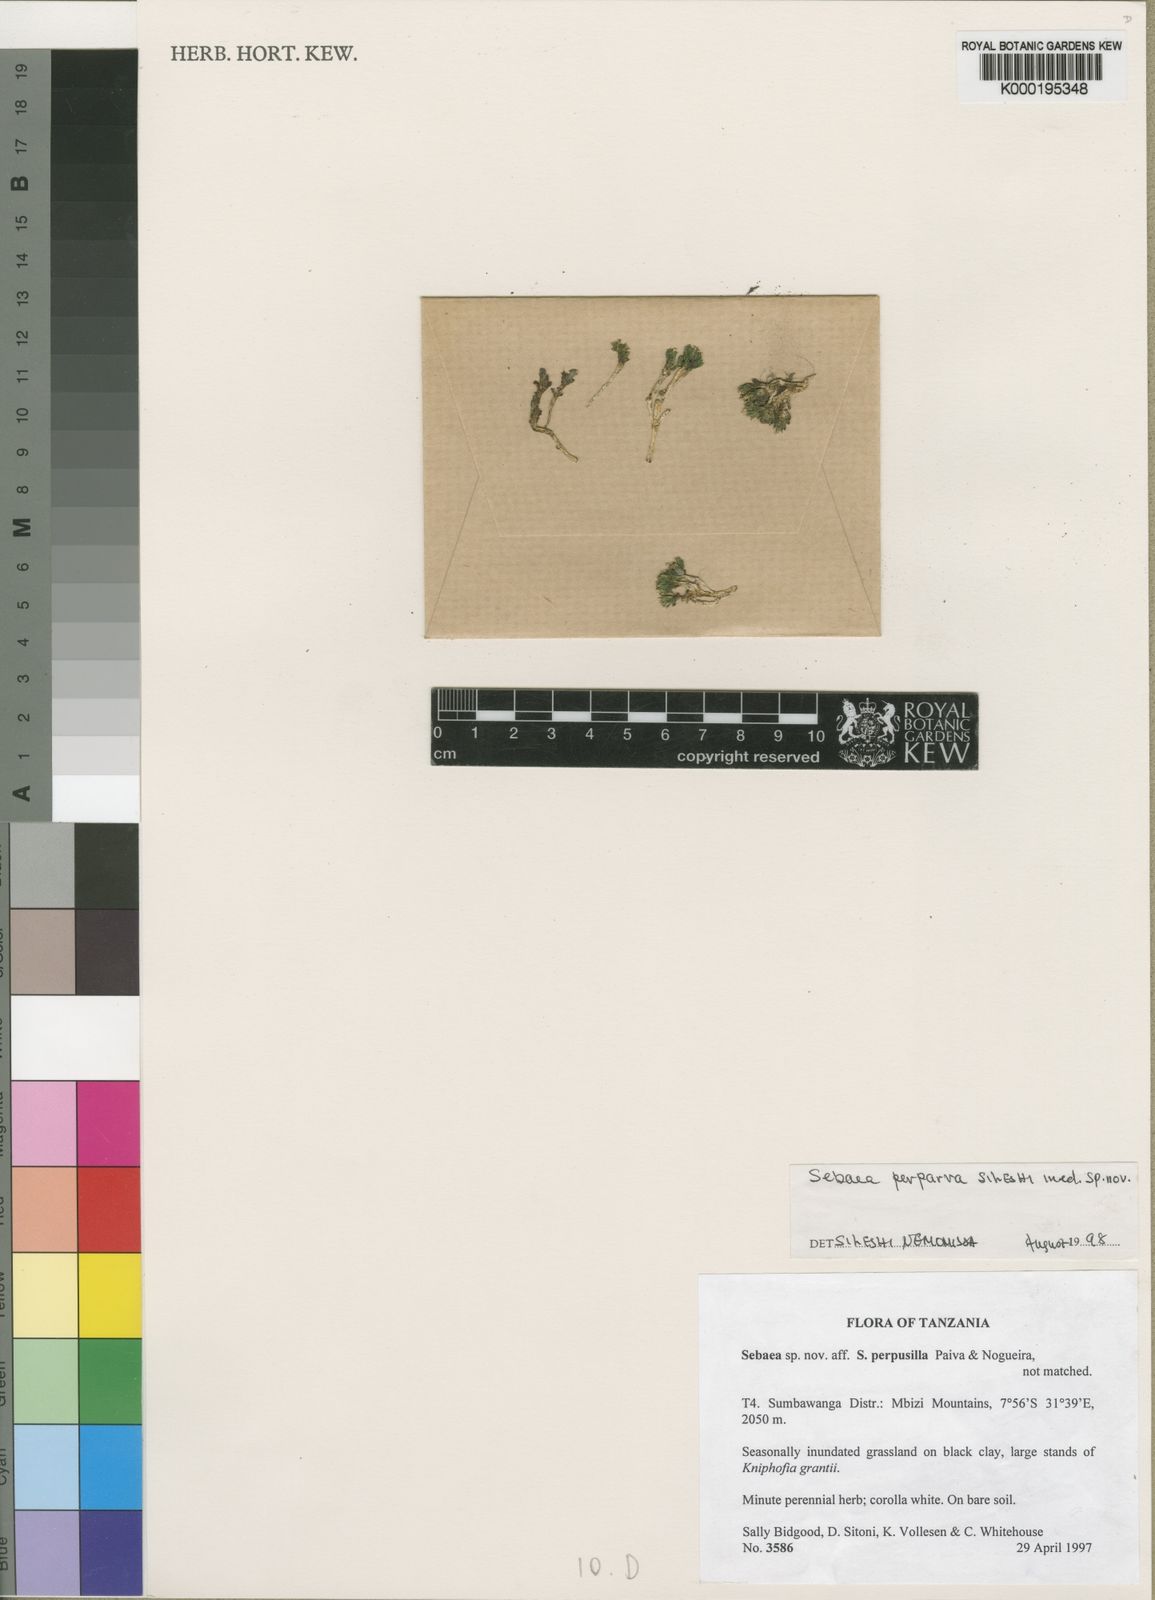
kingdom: Plantae
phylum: Tracheophyta
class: Magnoliopsida
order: Gentianales
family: Gentianaceae
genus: Exochaenium
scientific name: Exochaenium perparvum
